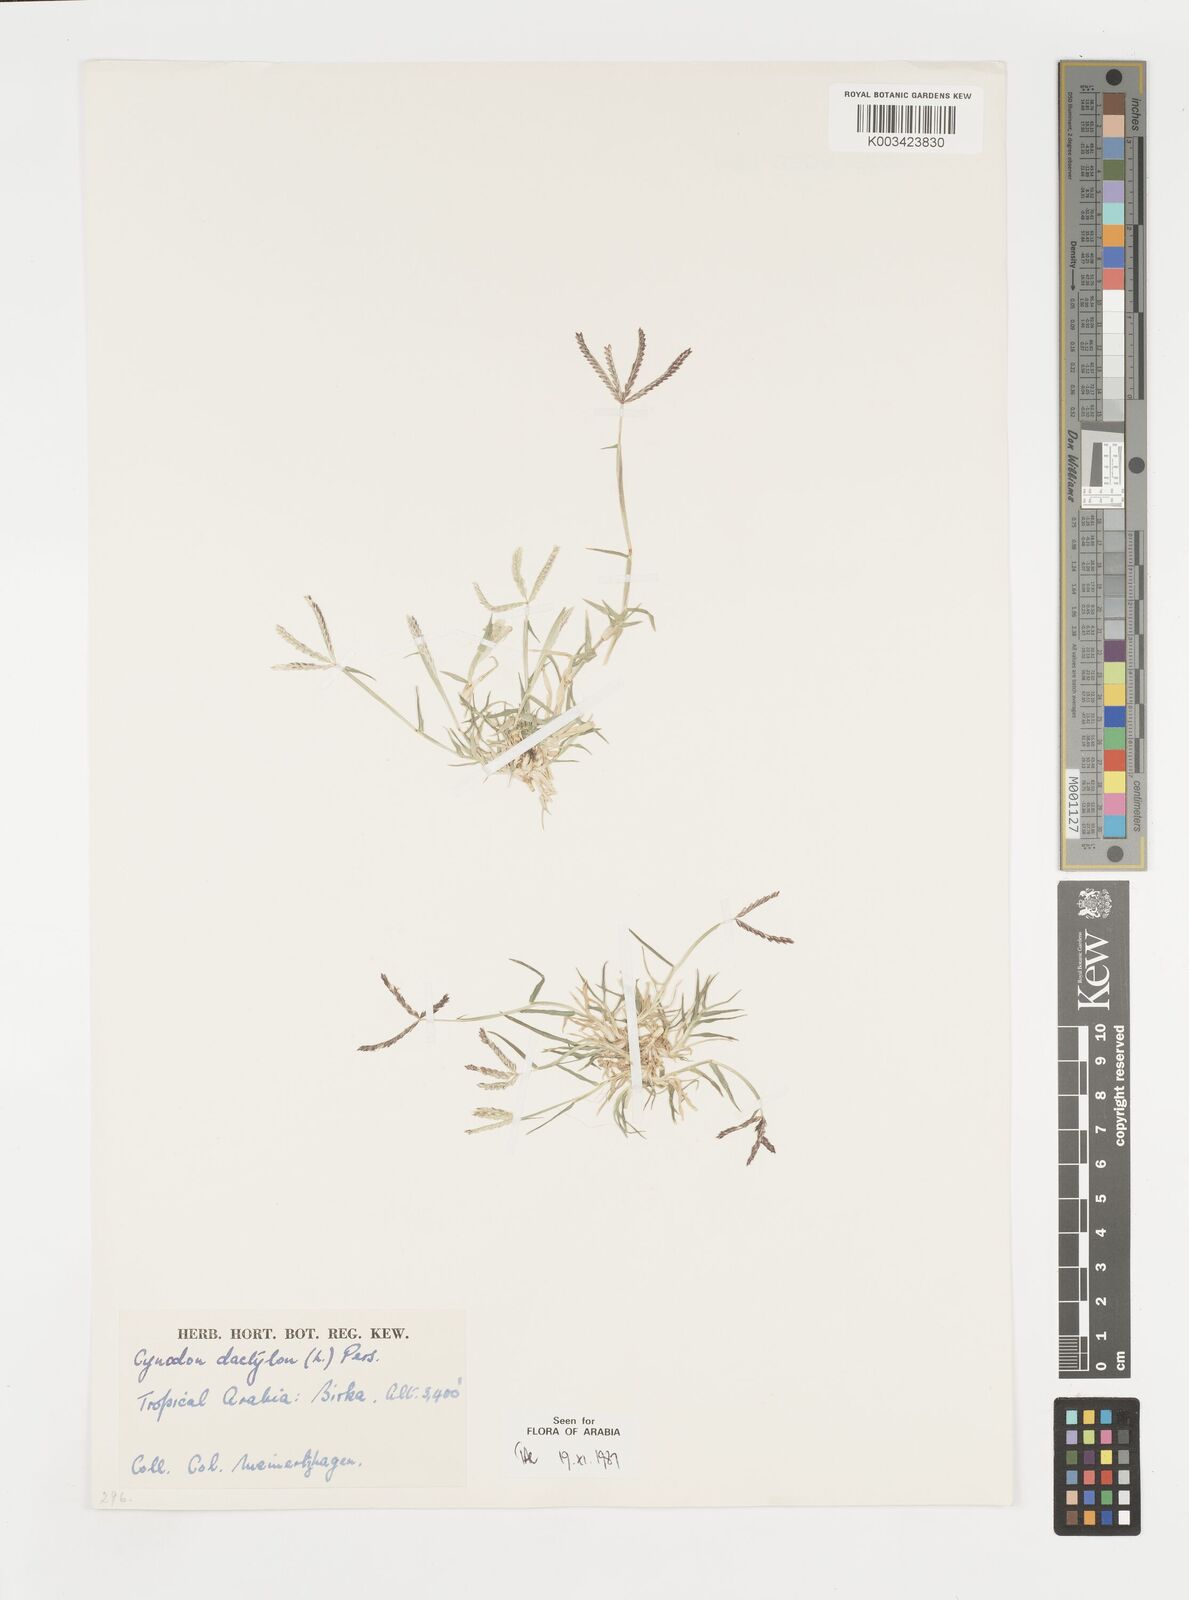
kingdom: Plantae
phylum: Tracheophyta
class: Liliopsida
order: Poales
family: Poaceae
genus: Cynodon
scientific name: Cynodon dactylon
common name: Bermuda grass
